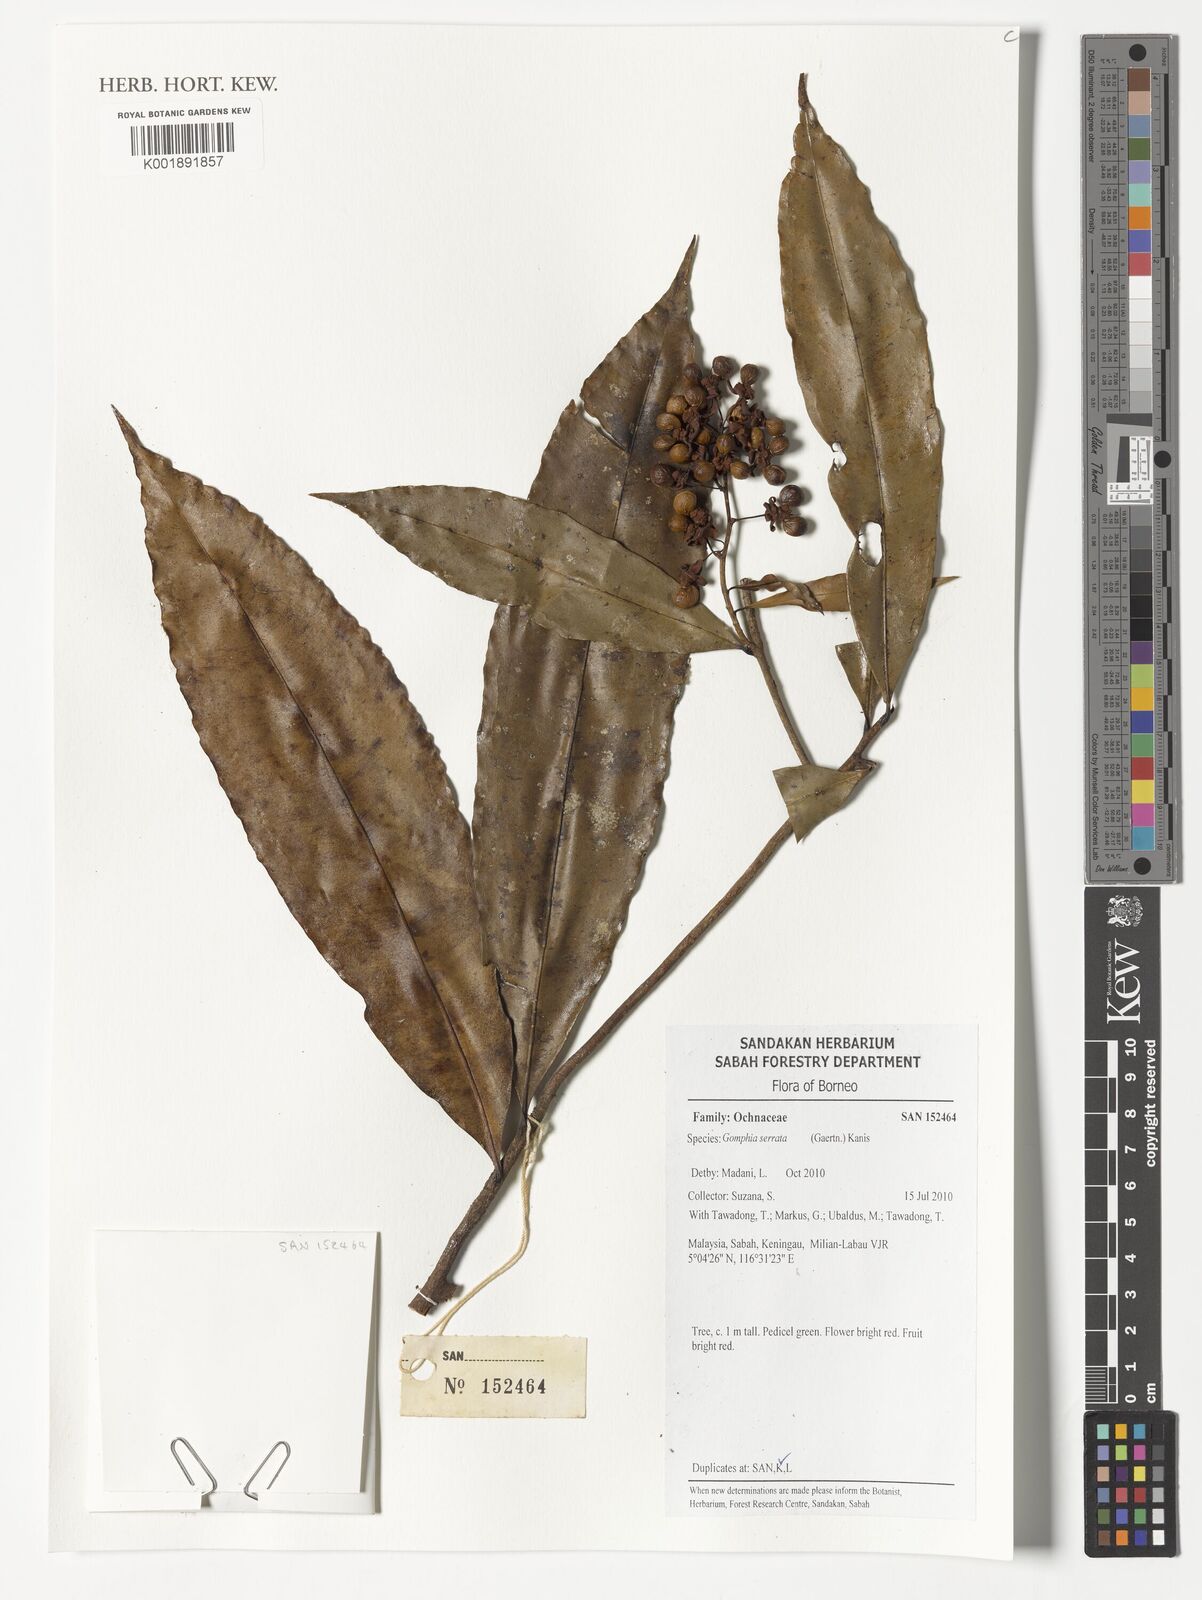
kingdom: Plantae
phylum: Tracheophyta
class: Magnoliopsida
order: Malpighiales
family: Ochnaceae
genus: Gomphia
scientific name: Gomphia serrata
